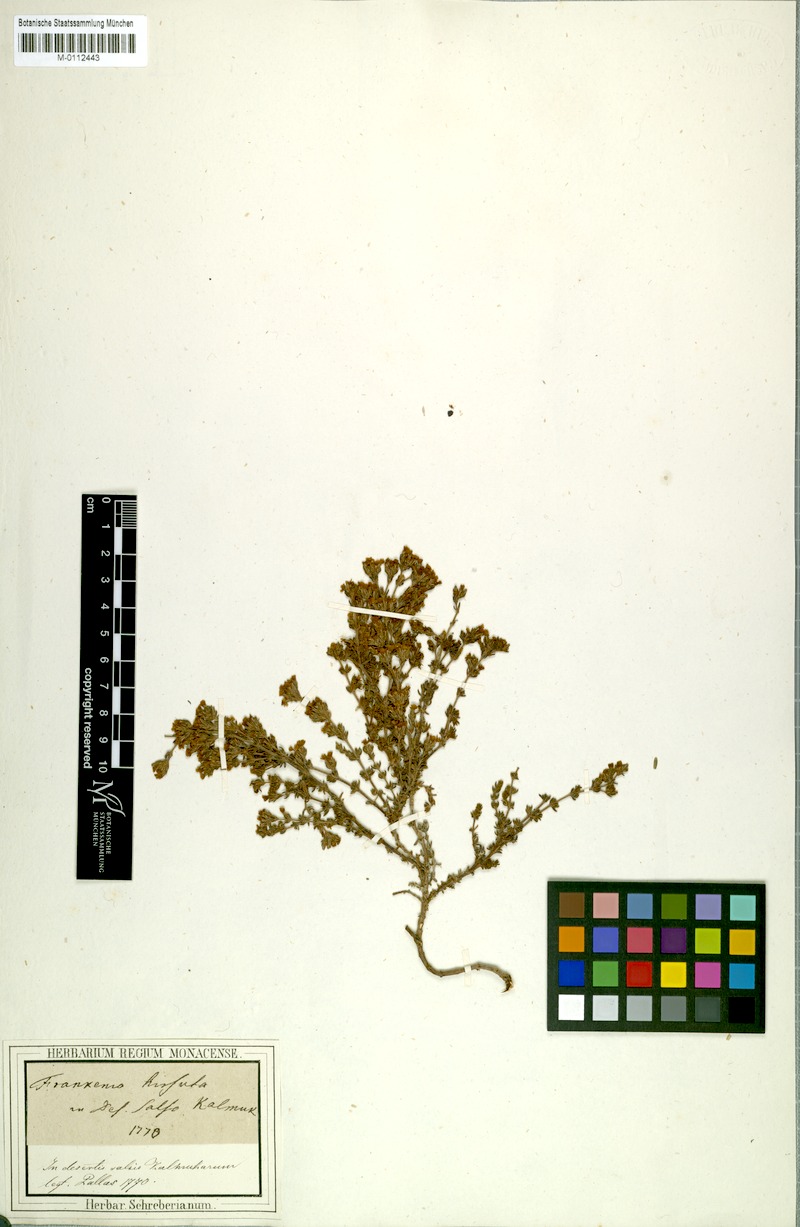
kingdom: Plantae
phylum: Tracheophyta
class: Magnoliopsida
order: Caryophyllales
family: Frankeniaceae
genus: Frankenia
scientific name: Frankenia hirsuta
